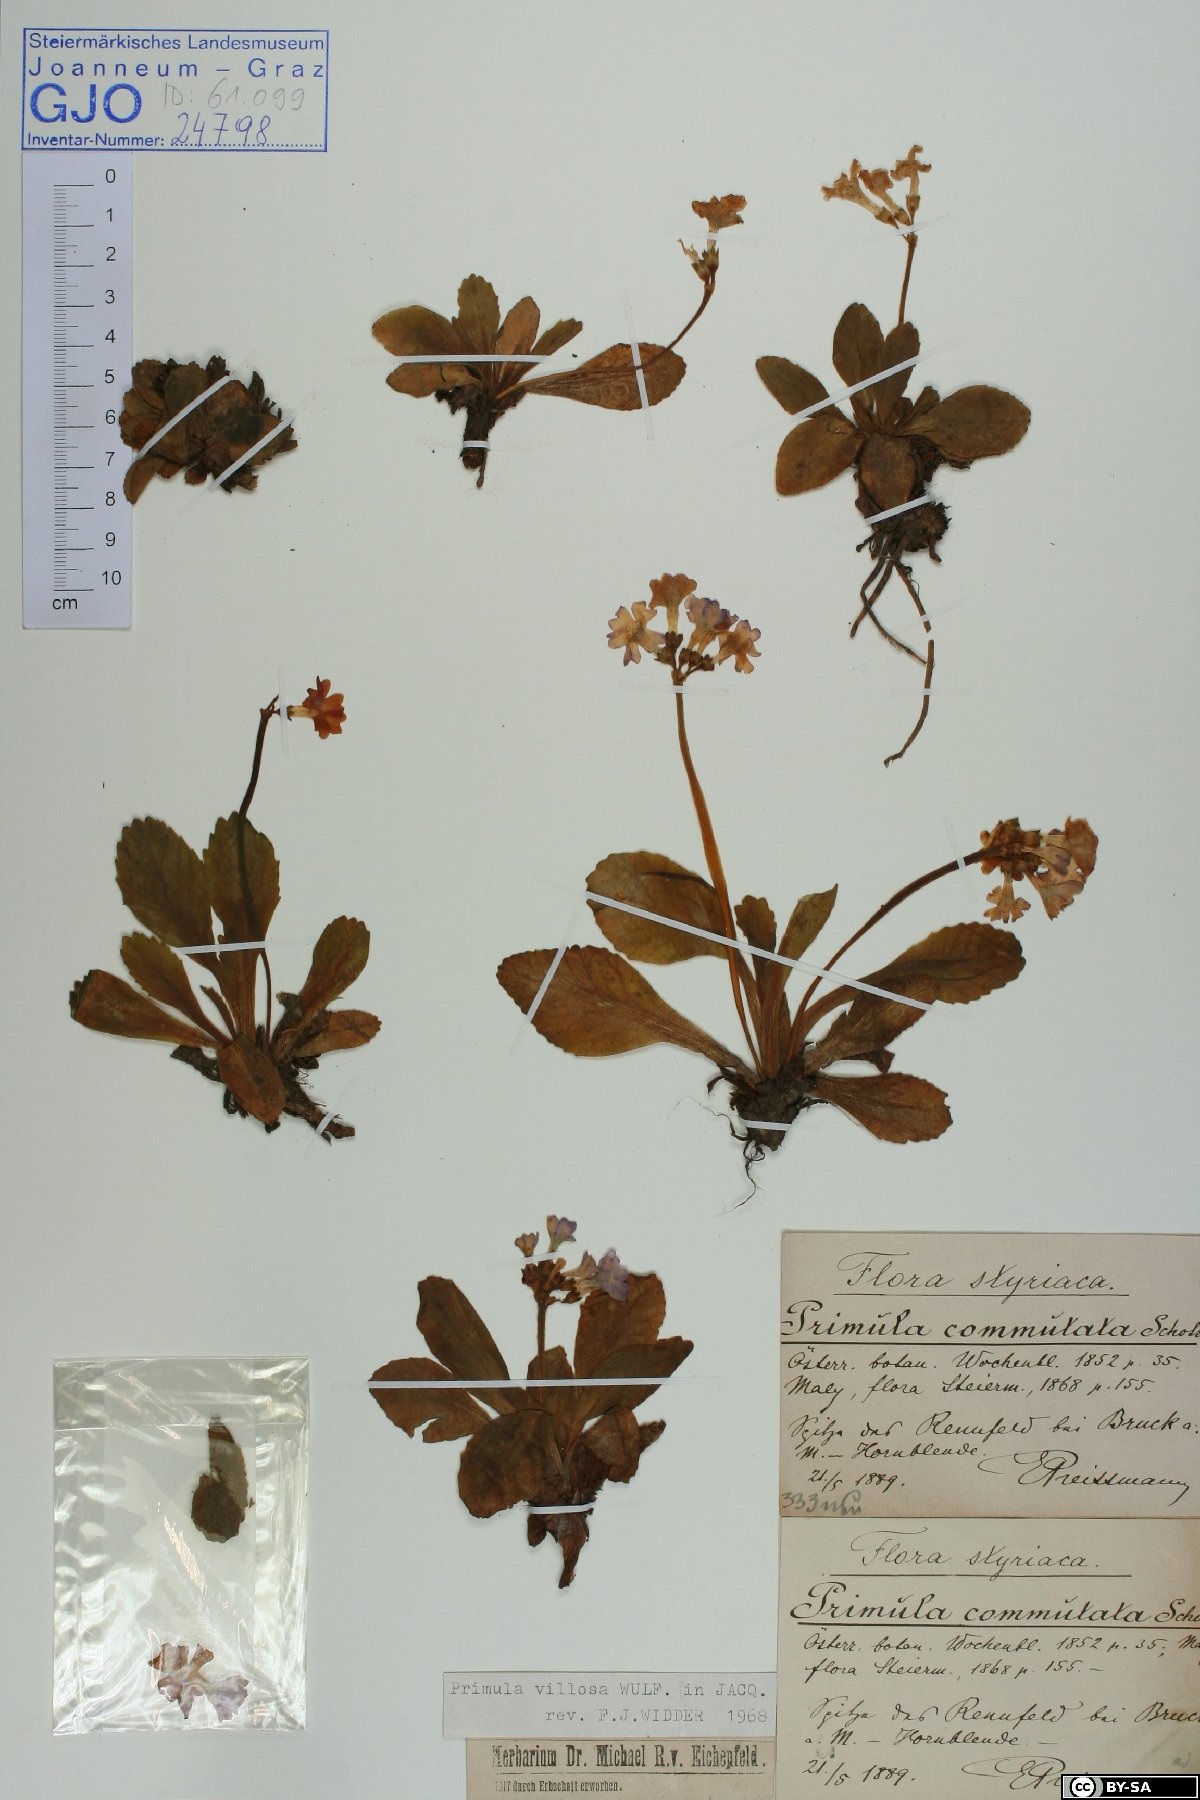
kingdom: Plantae
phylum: Tracheophyta
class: Magnoliopsida
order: Ericales
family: Primulaceae
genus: Primula
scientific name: Primula villosa
